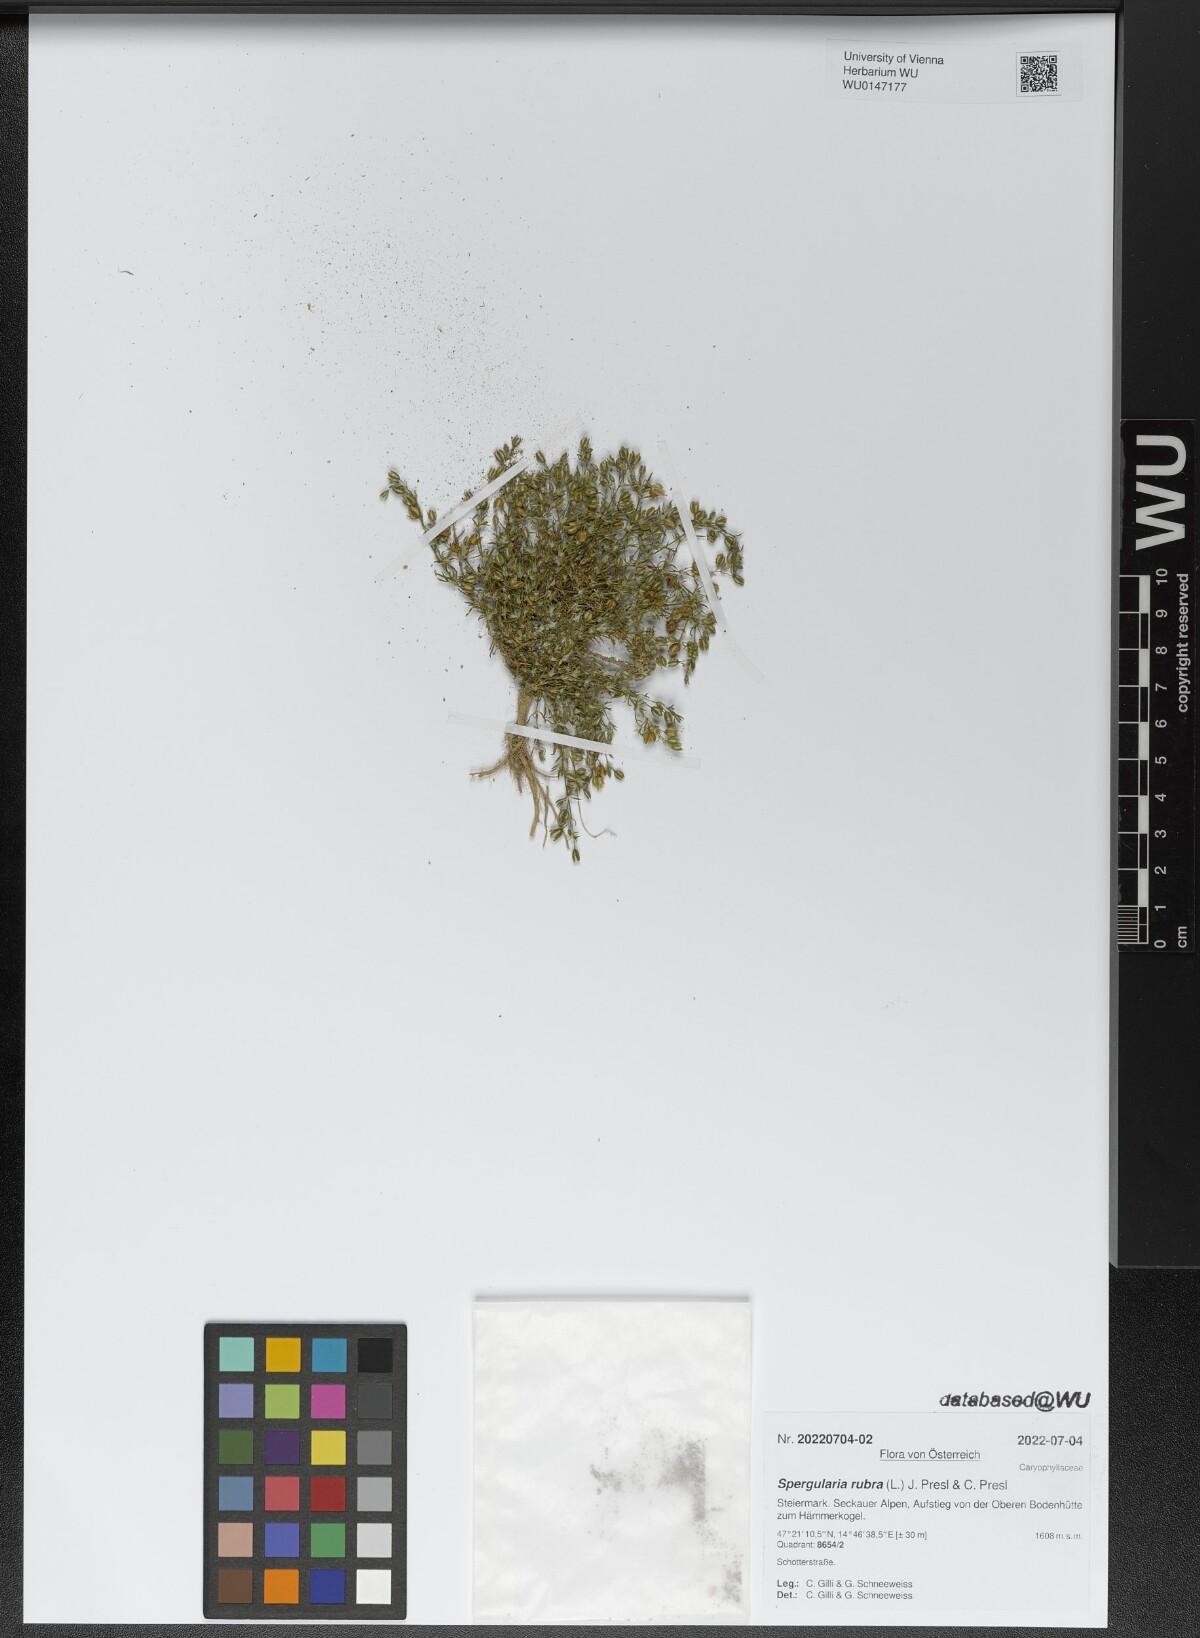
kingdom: Plantae
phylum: Tracheophyta
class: Magnoliopsida
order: Caryophyllales
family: Caryophyllaceae
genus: Spergularia
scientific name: Spergularia rubra
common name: Red sand-spurrey
